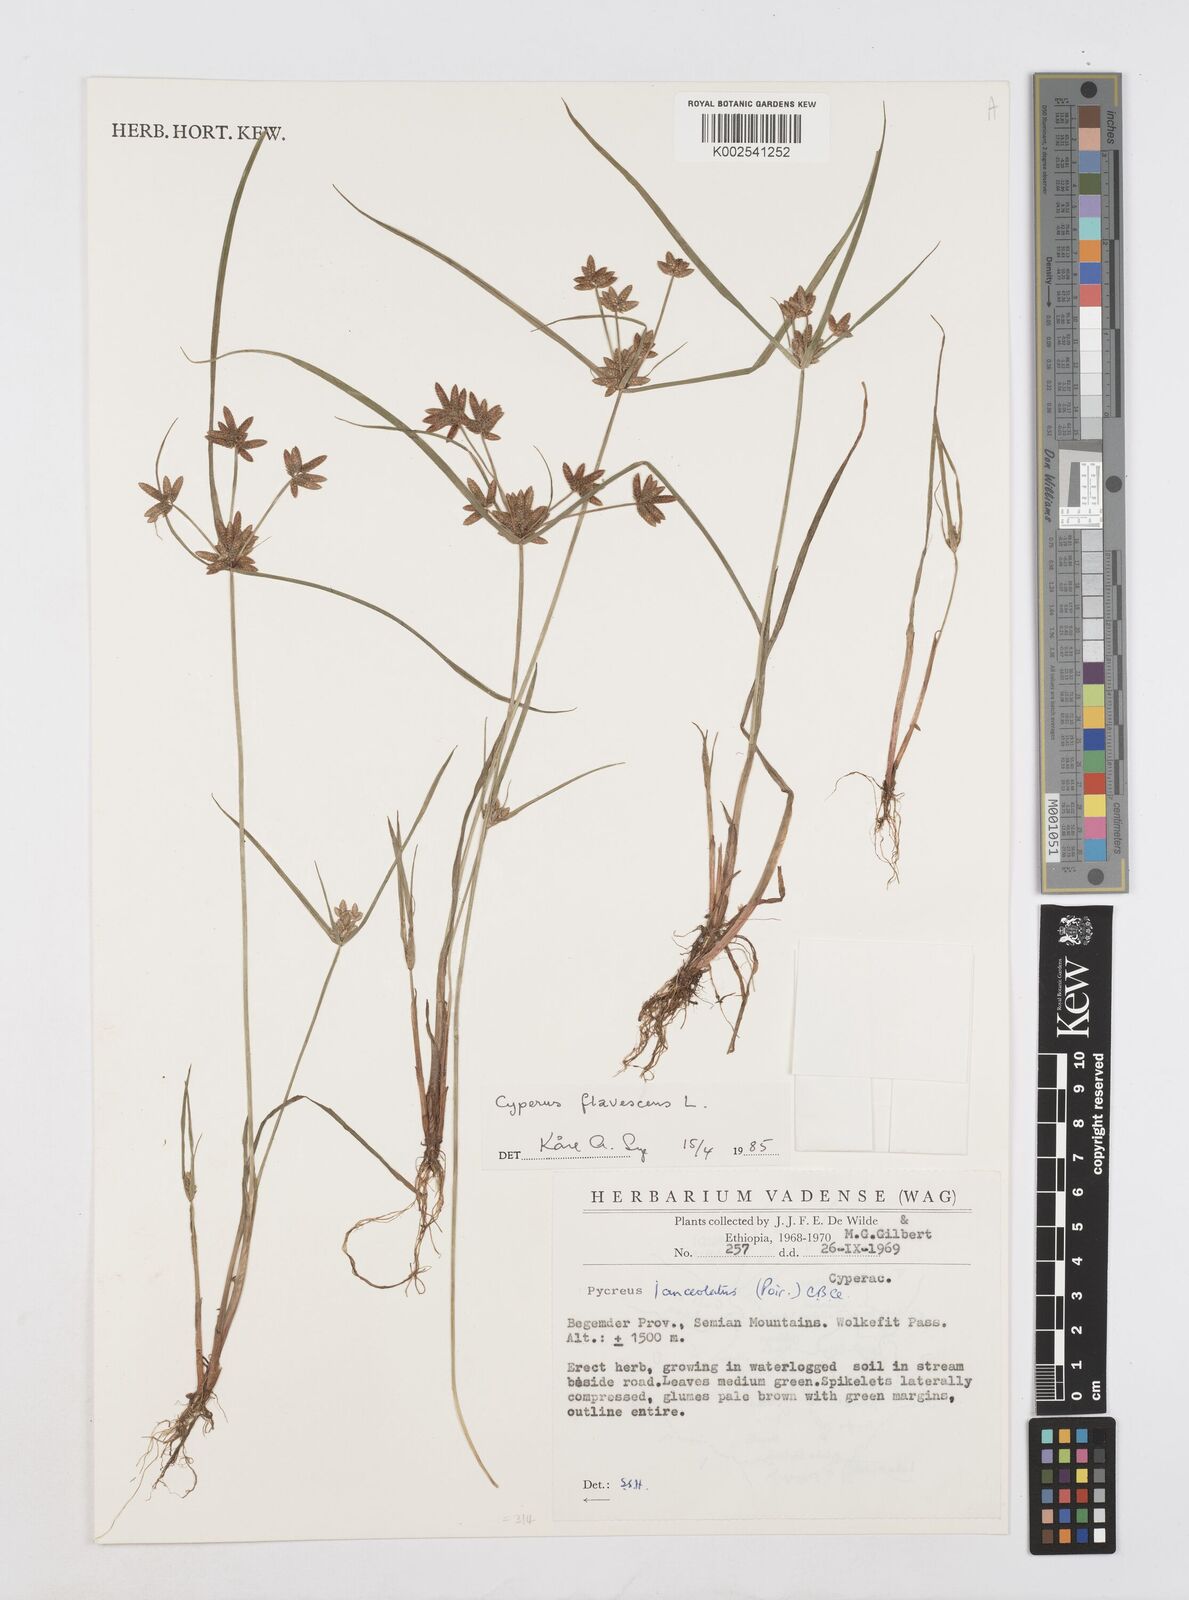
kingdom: Plantae
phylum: Tracheophyta
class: Liliopsida
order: Poales
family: Cyperaceae
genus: Cyperus
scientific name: Cyperus flavescens
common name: Yellow galingale
